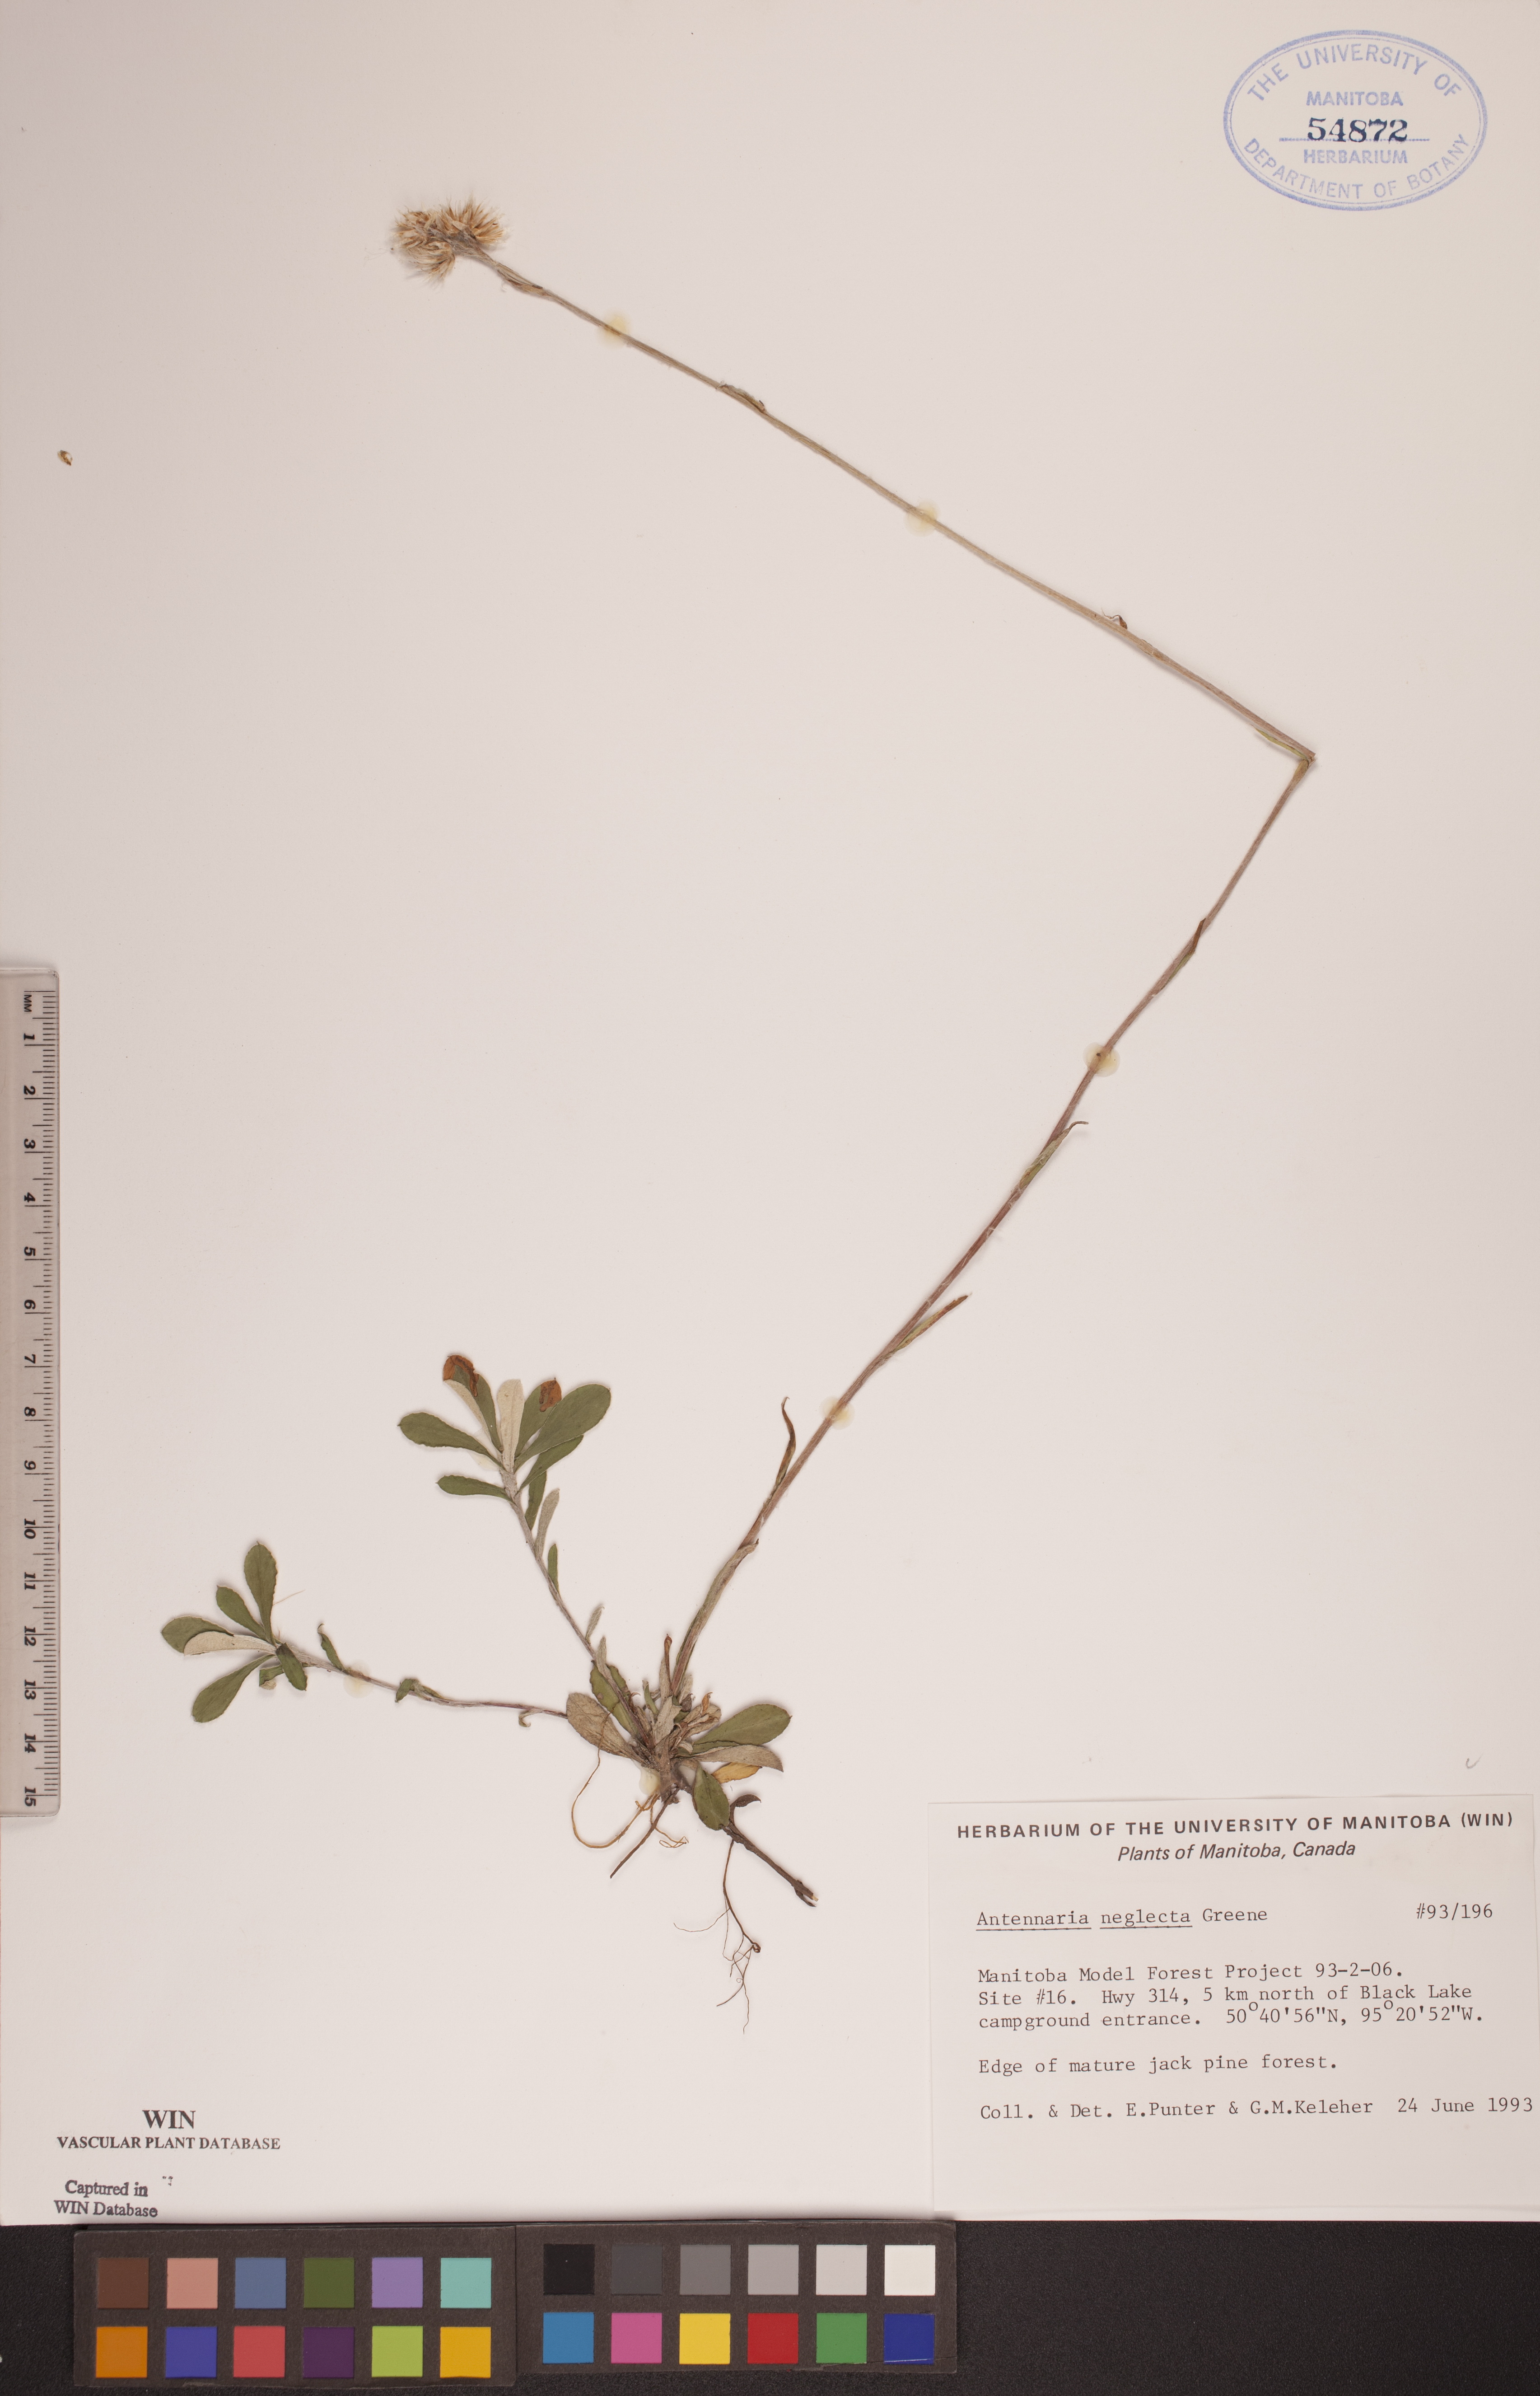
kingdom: Plantae
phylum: Tracheophyta
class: Magnoliopsida
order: Asterales
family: Asteraceae
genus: Antennaria
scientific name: Antennaria neglecta
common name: Field pussytoes
